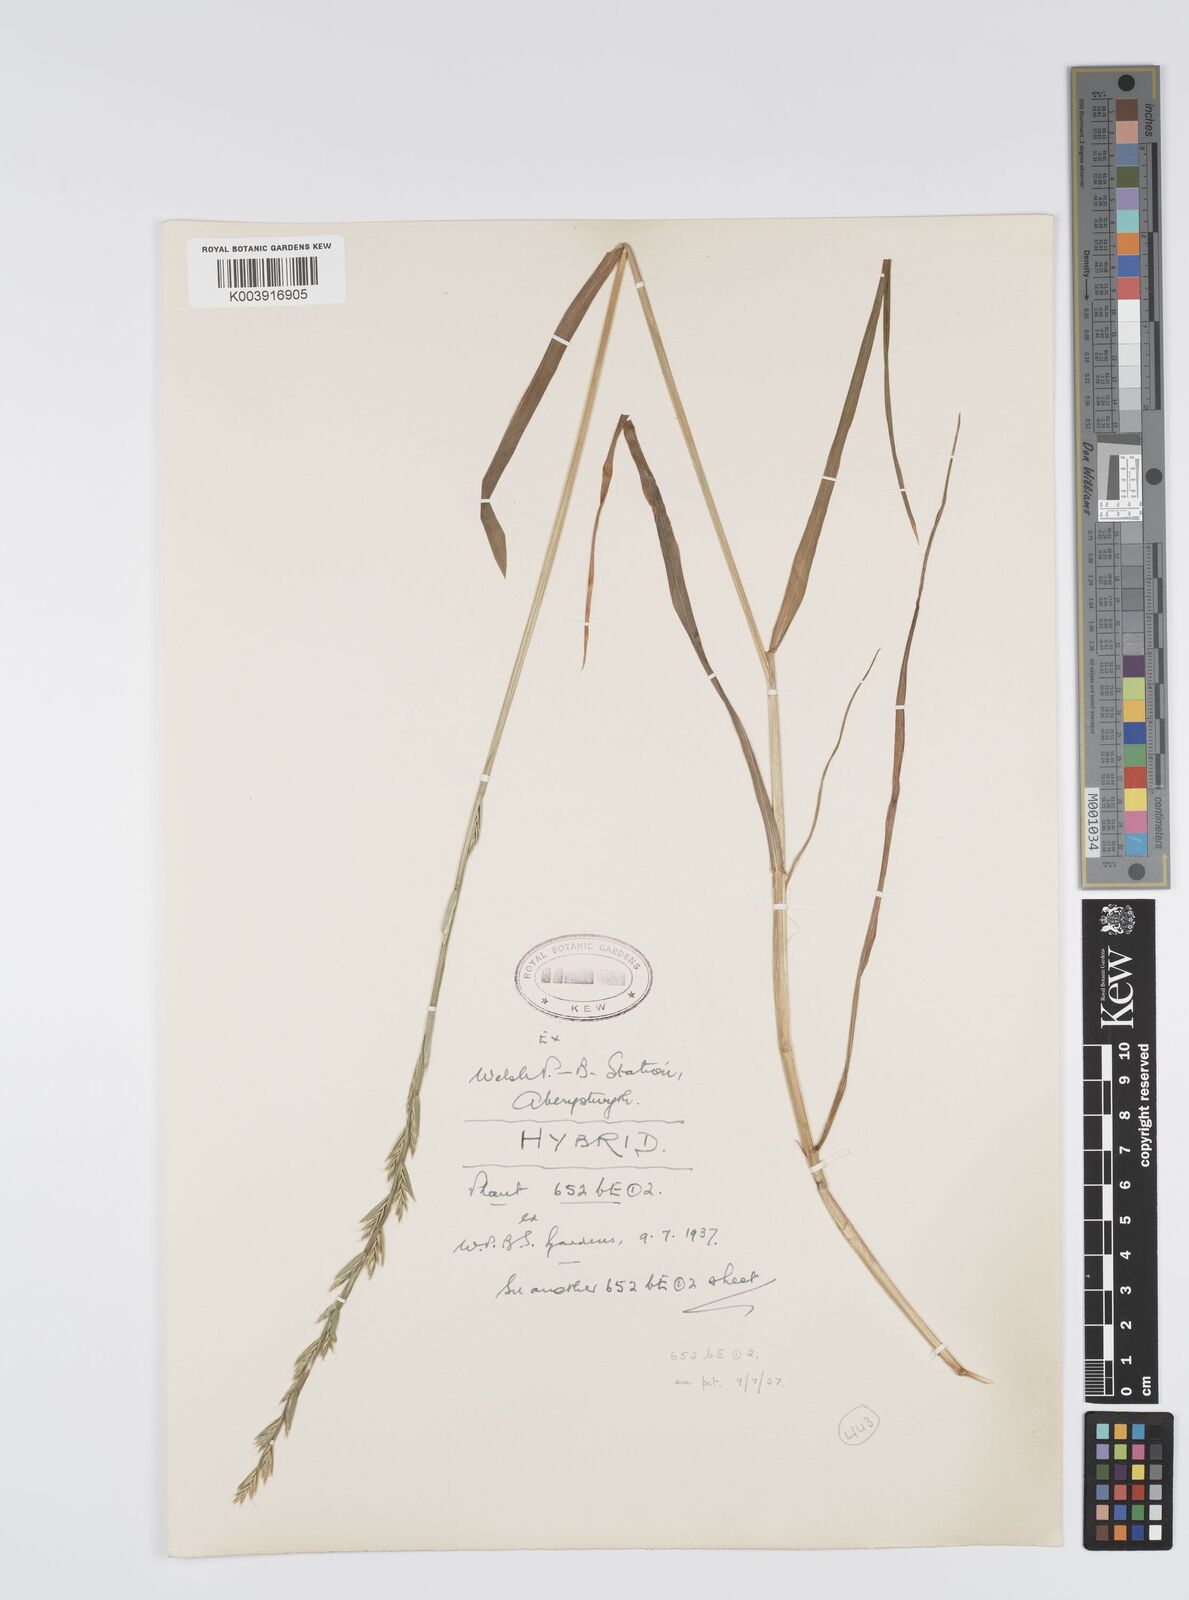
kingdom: Plantae
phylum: Tracheophyta
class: Liliopsida
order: Poales
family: Poaceae
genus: Lolium
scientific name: Lolium multiflorum
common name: Annual ryegrass
